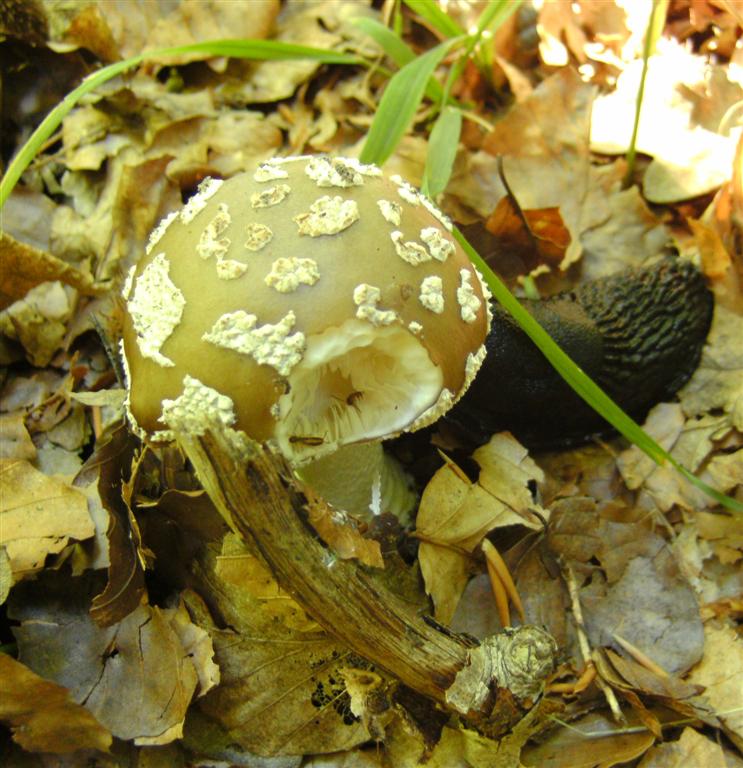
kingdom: Fungi
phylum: Basidiomycota
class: Agaricomycetes
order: Agaricales
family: Amanitaceae
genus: Amanita
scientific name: Amanita
